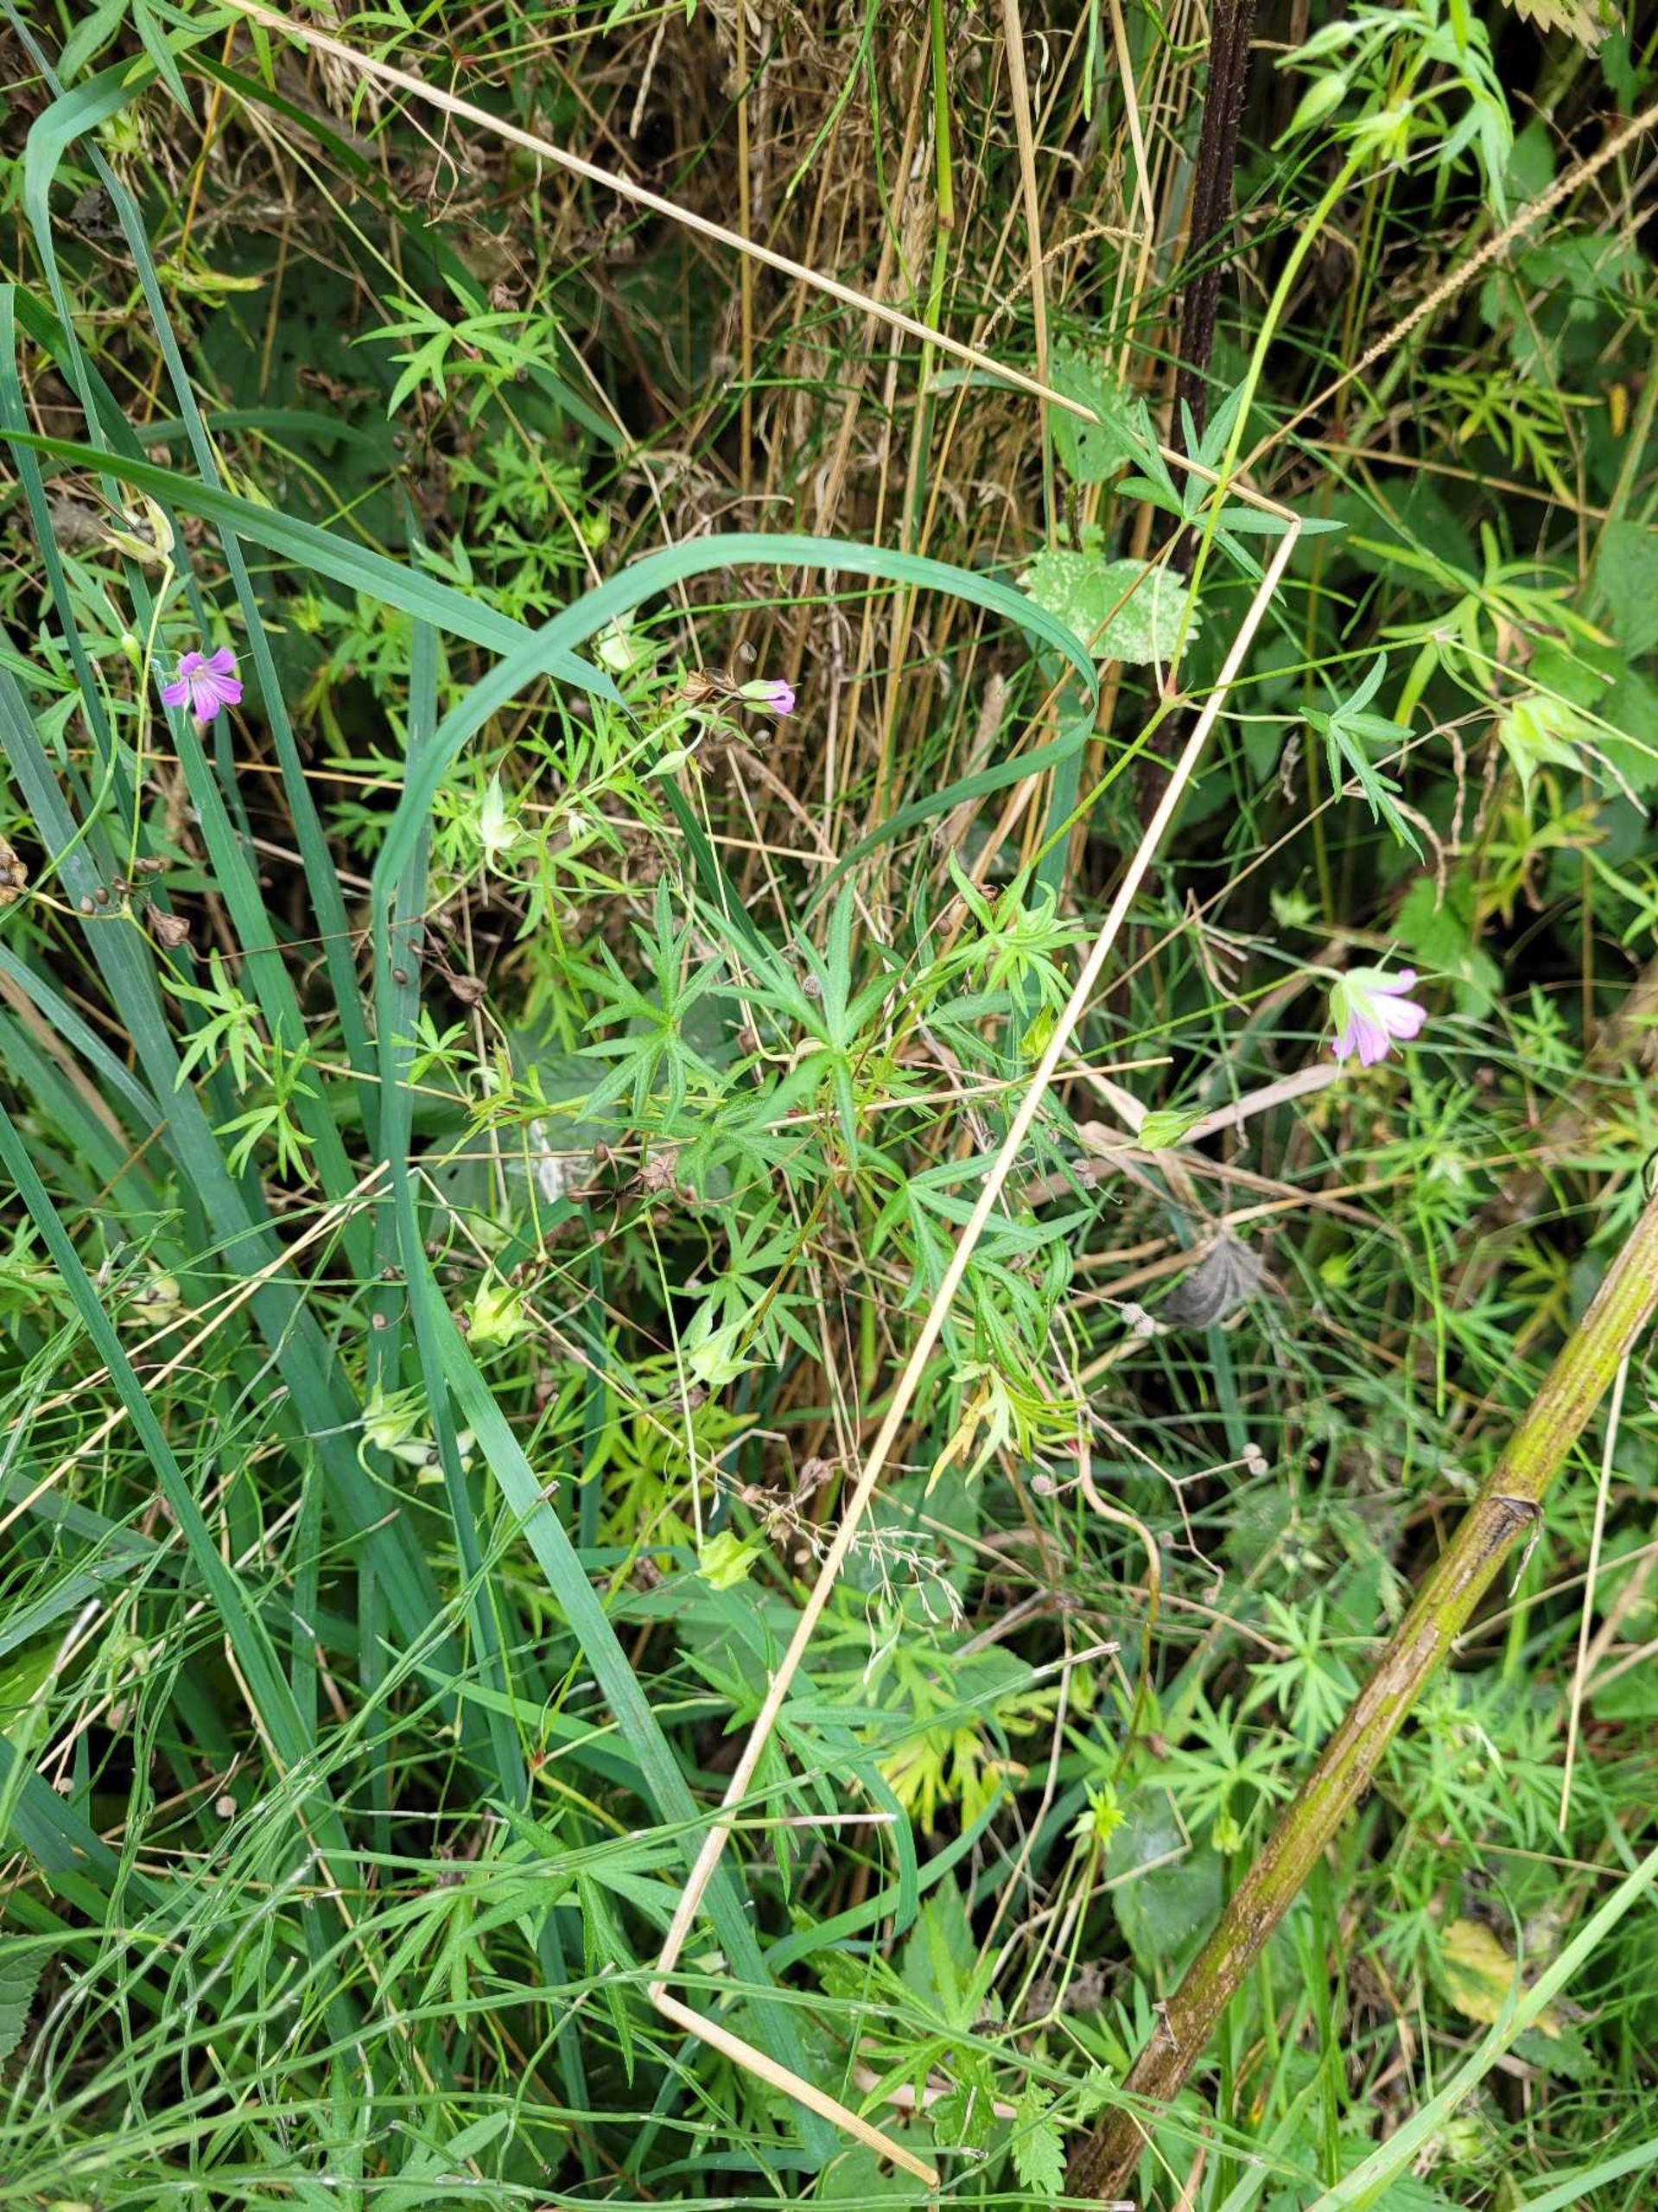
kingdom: Plantae
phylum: Tracheophyta
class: Magnoliopsida
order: Geraniales
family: Geraniaceae
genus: Geranium
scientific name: Geranium columbinum
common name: Storbægret storkenæb
